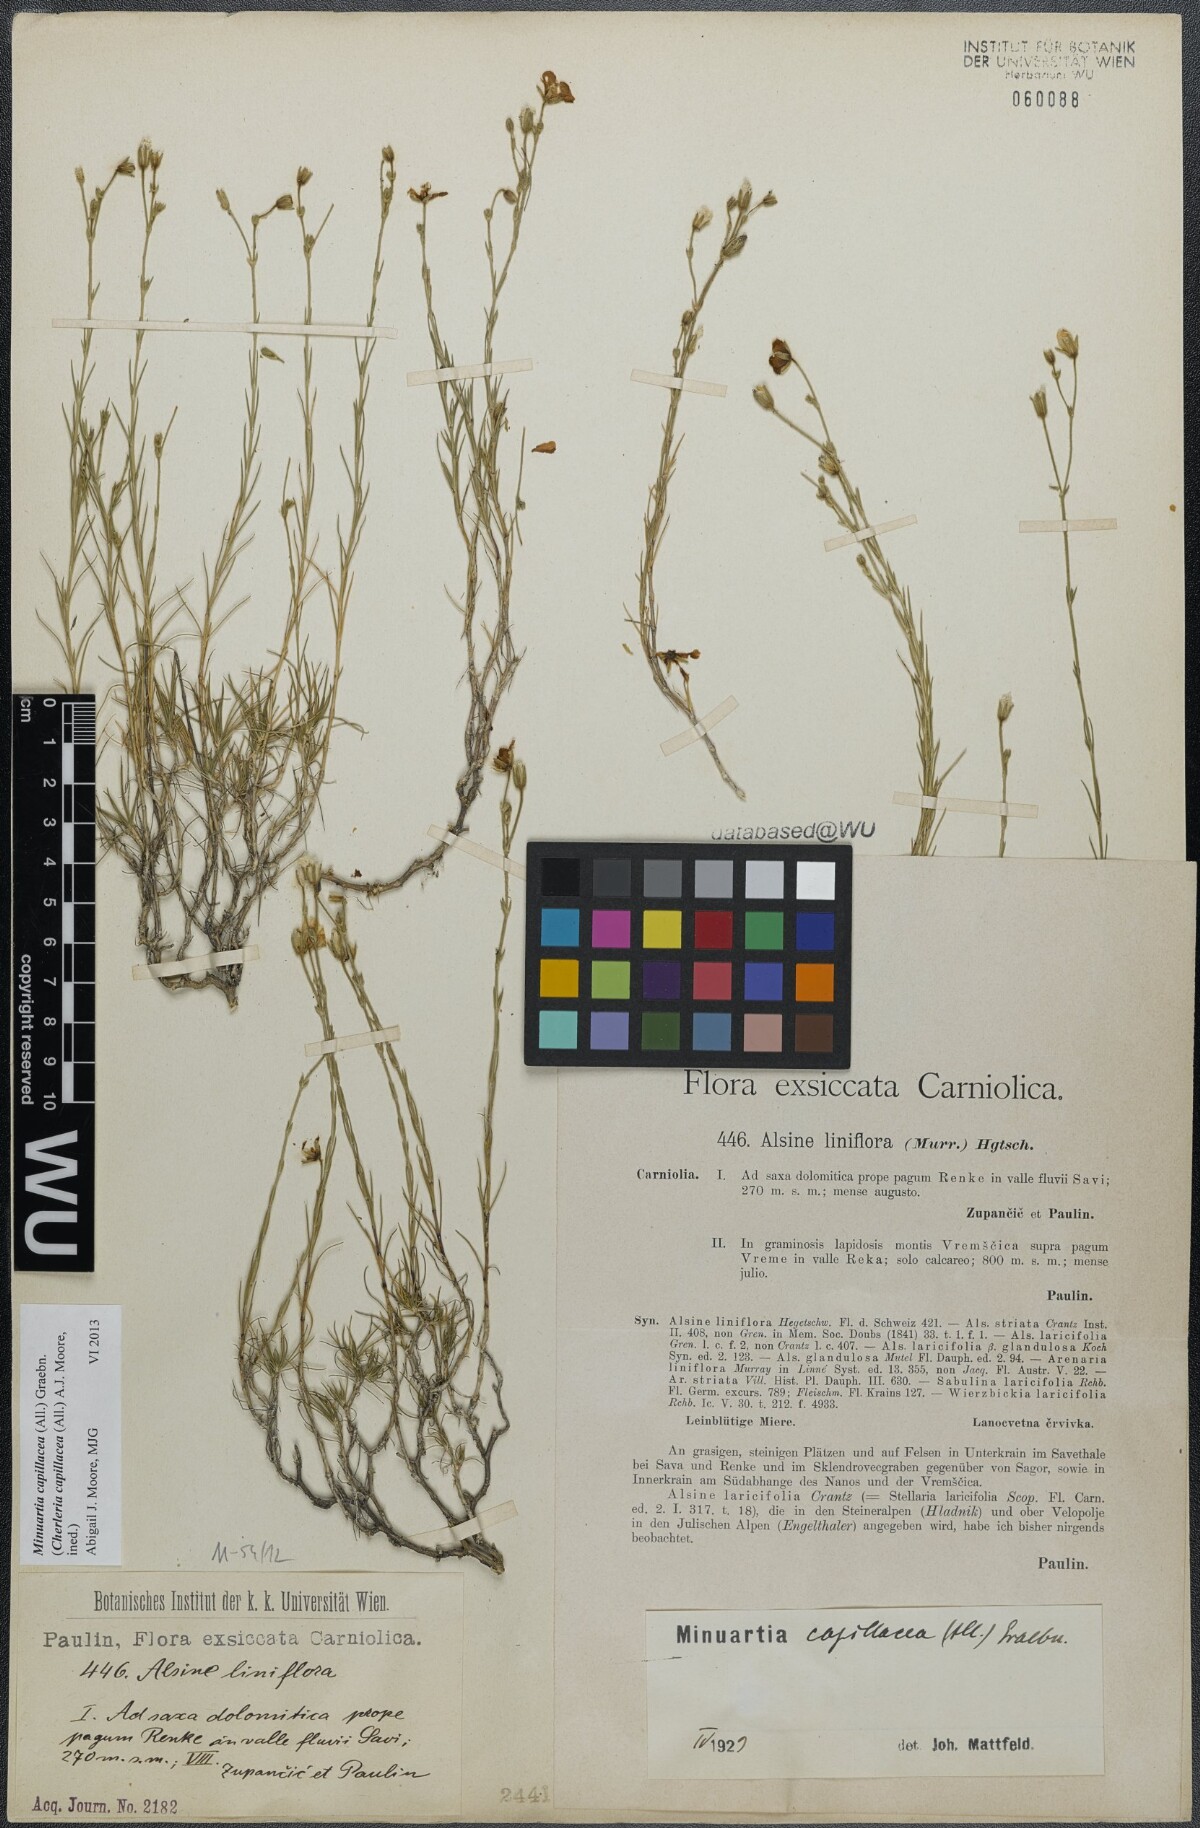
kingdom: Plantae
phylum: Tracheophyta
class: Magnoliopsida
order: Caryophyllales
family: Caryophyllaceae
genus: Cherleria
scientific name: Cherleria capillacea
